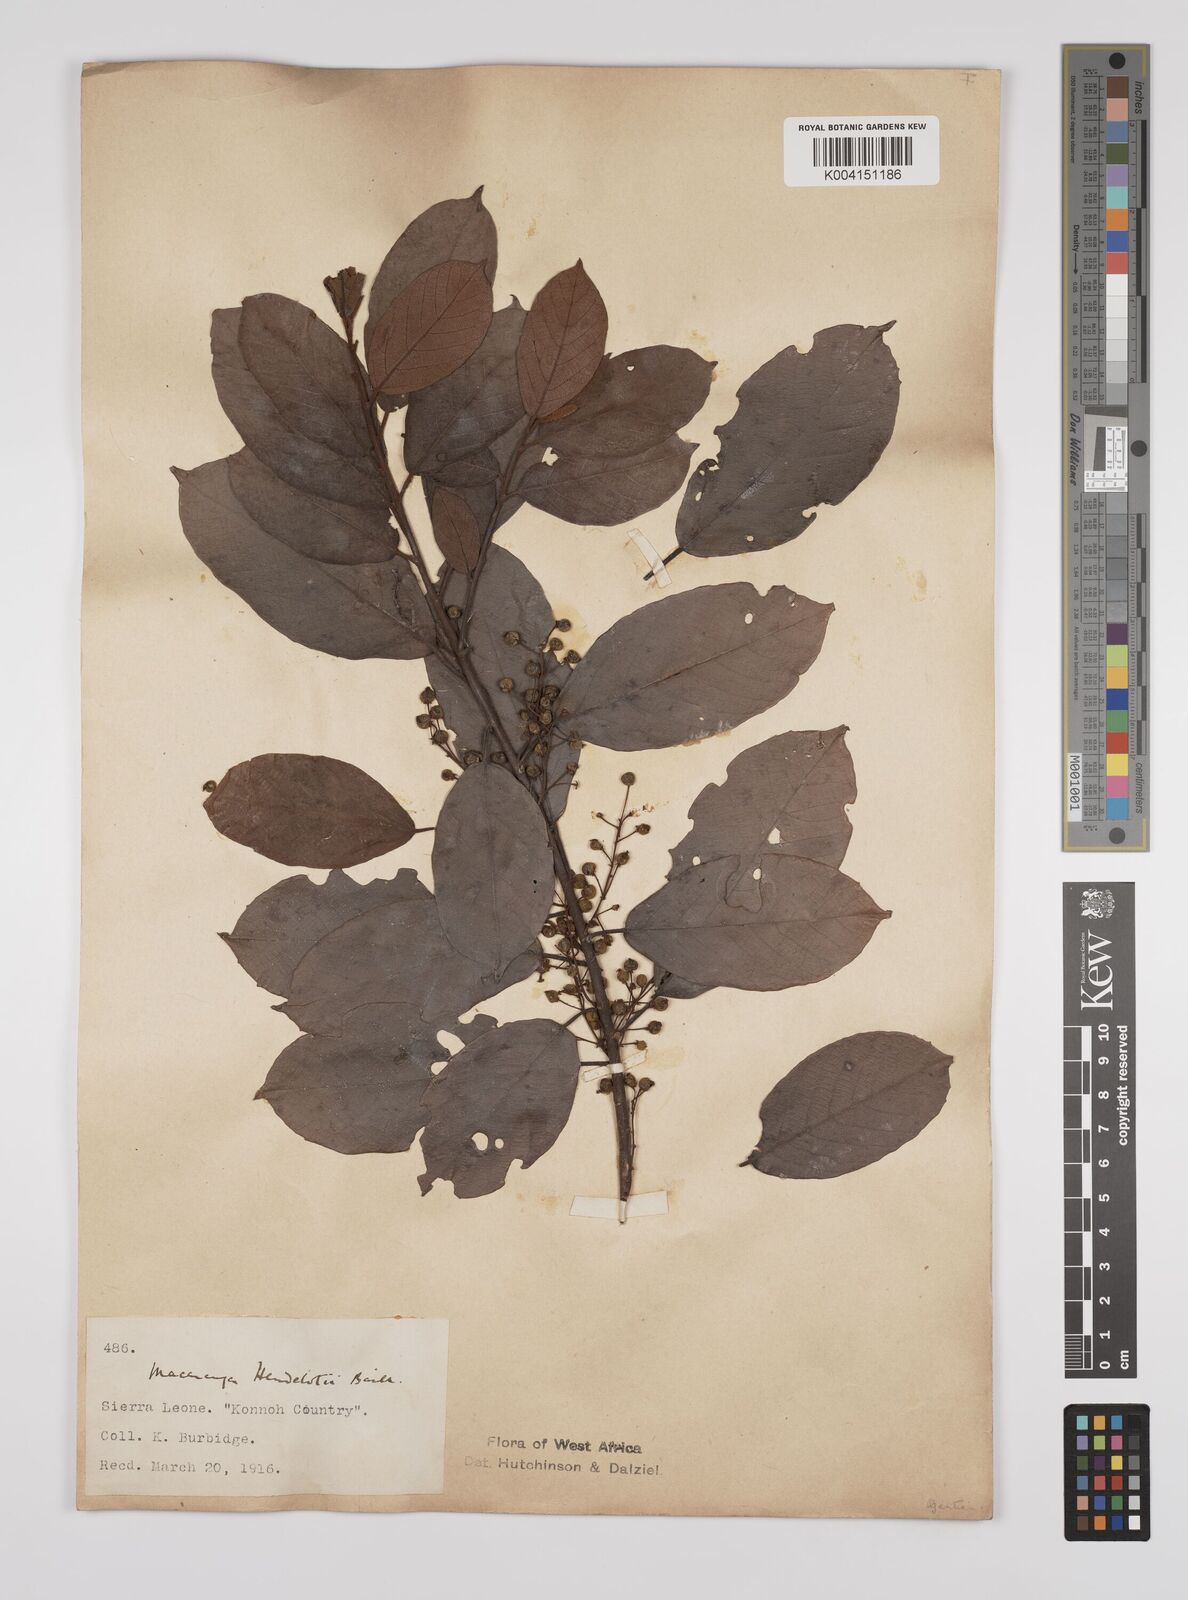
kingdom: Plantae
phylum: Tracheophyta
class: Magnoliopsida
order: Malpighiales
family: Euphorbiaceae
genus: Macaranga
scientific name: Macaranga heudelotii
